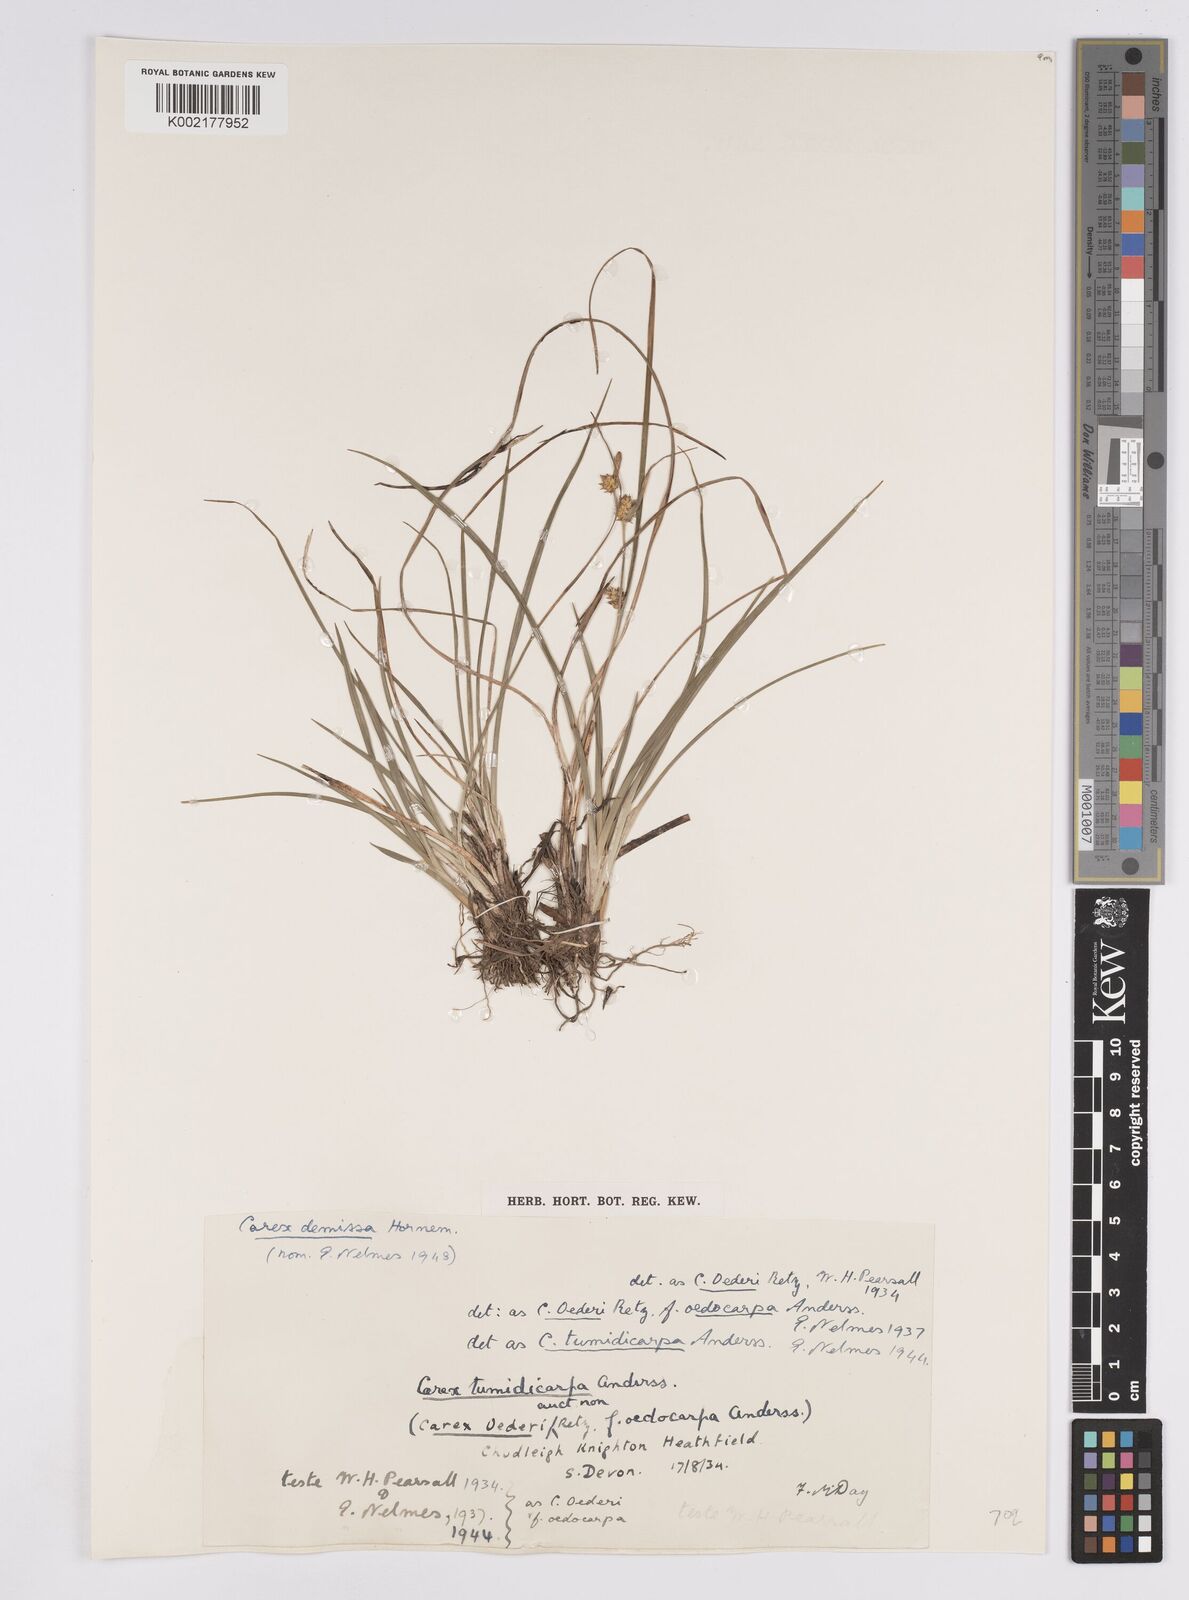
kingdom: Plantae
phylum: Tracheophyta
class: Liliopsida
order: Poales
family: Cyperaceae
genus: Carex
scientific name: Carex demissa
